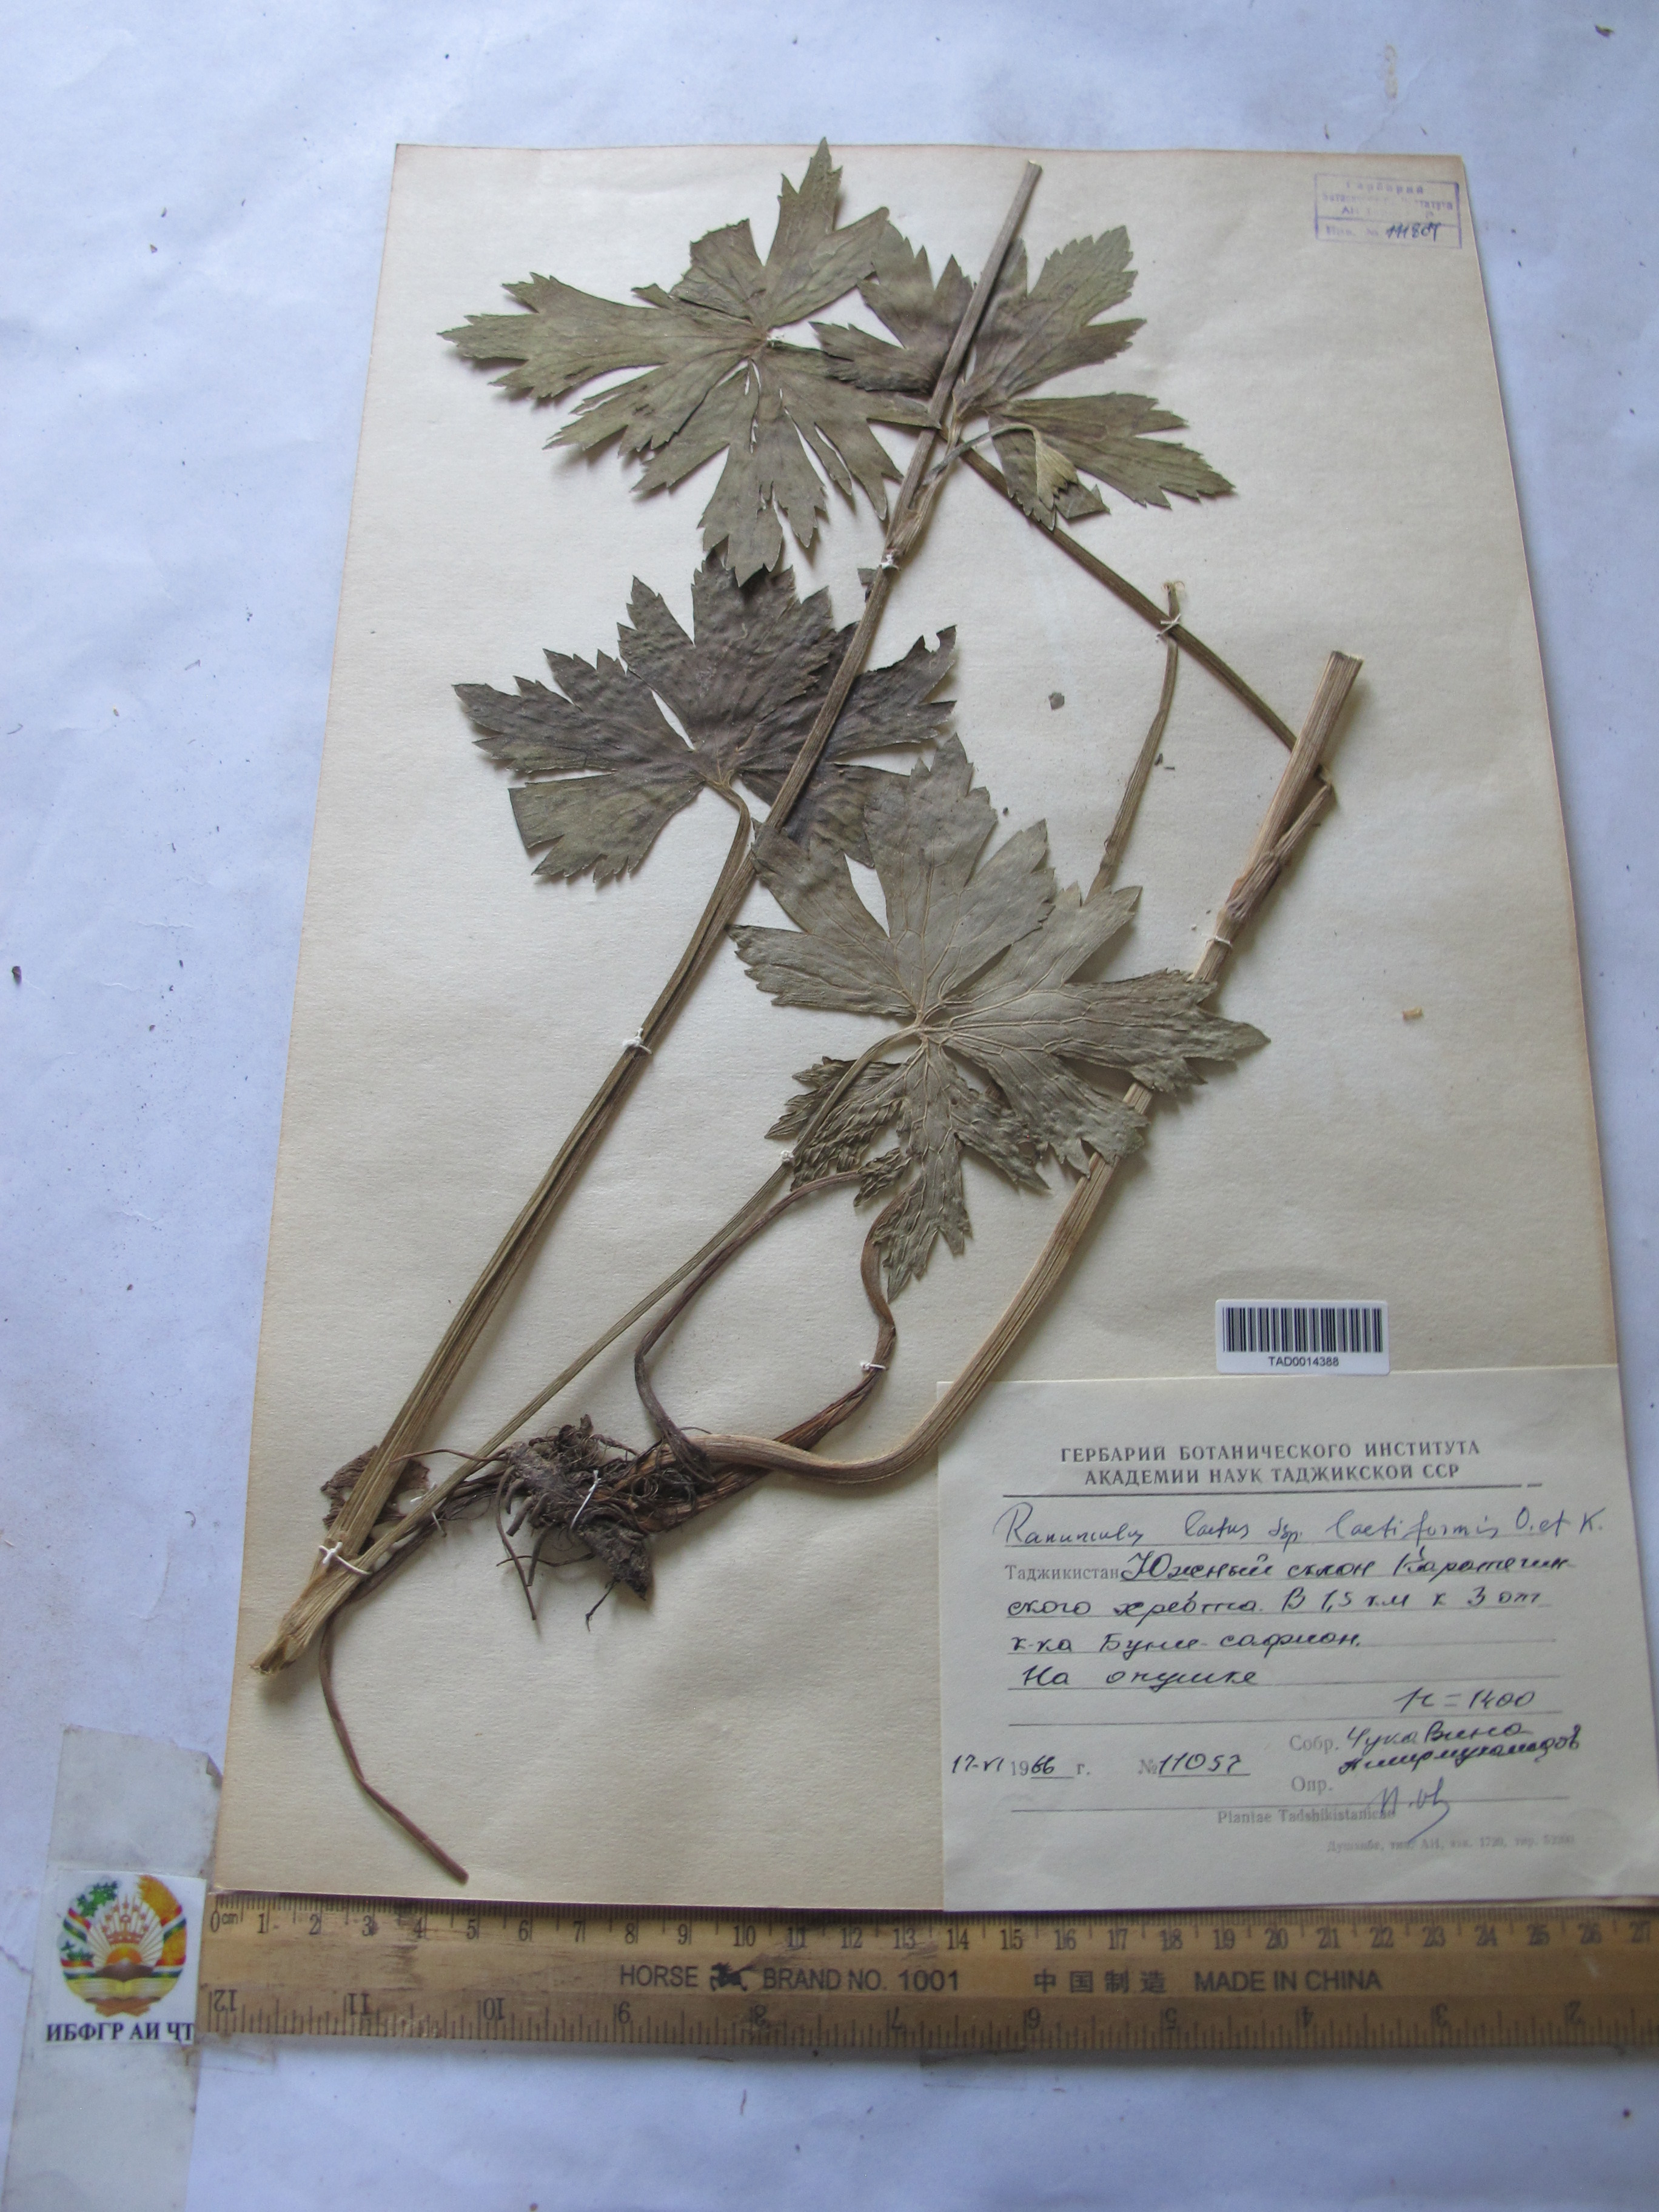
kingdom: Plantae
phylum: Tracheophyta
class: Magnoliopsida
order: Ranunculales
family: Ranunculaceae
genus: Ranunculus
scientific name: Ranunculus distans
